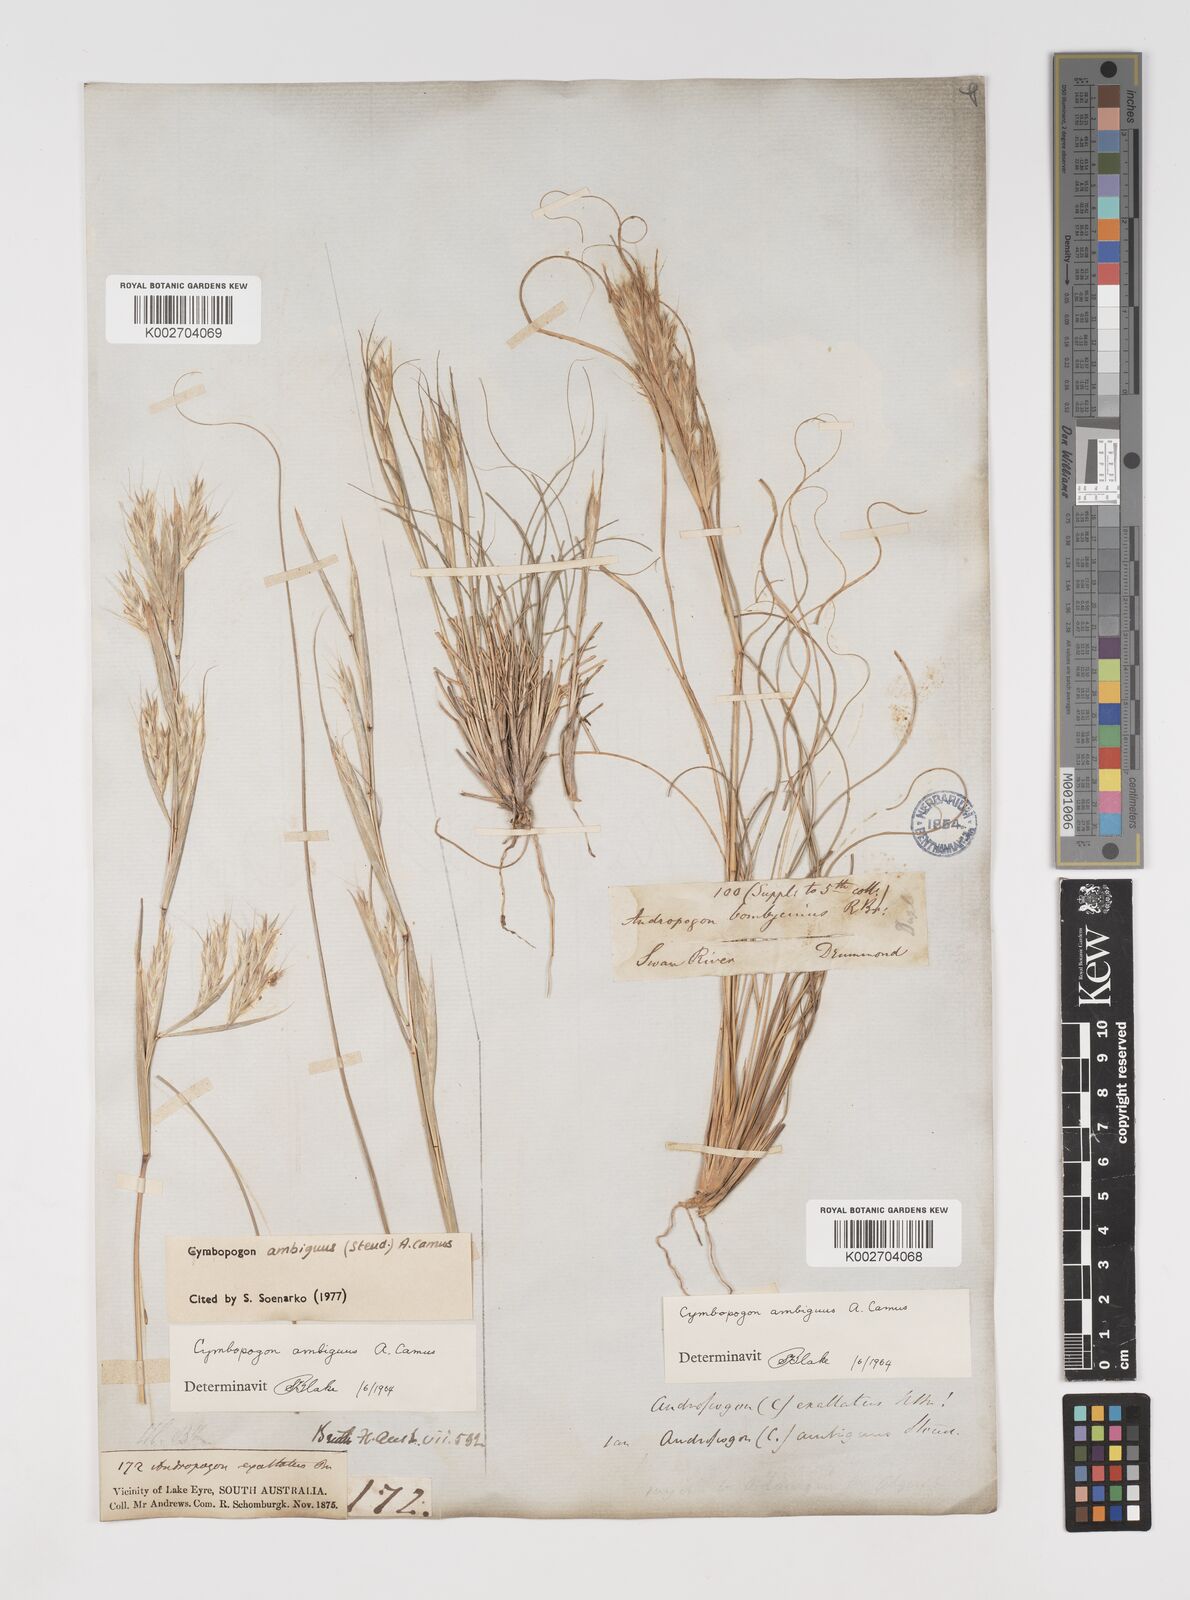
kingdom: Plantae
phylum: Tracheophyta
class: Liliopsida
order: Poales
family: Poaceae
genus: Cymbopogon
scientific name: Cymbopogon ambiguus
